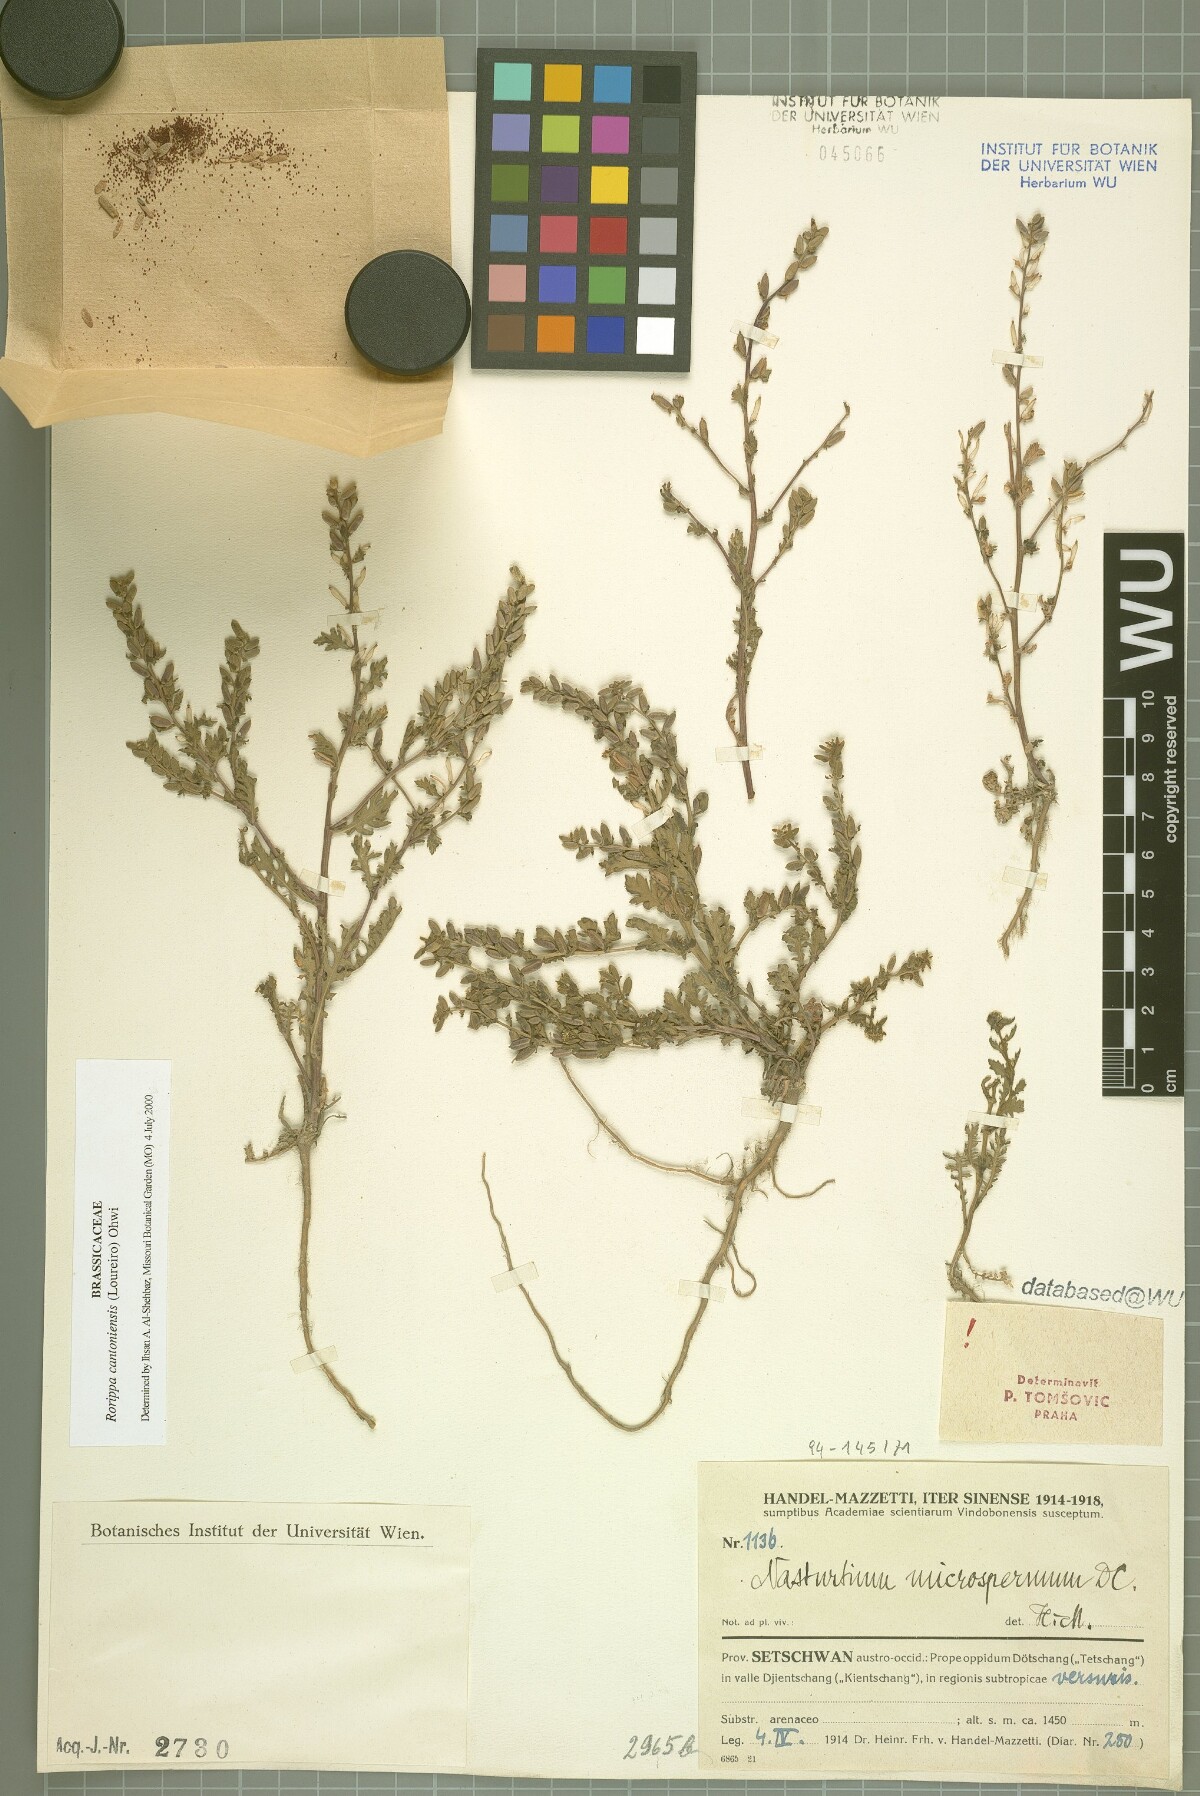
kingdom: Plantae
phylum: Tracheophyta
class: Magnoliopsida
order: Brassicales
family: Brassicaceae
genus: Rorippa
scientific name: Rorippa cantoniensis
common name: Chinese yellowcress
